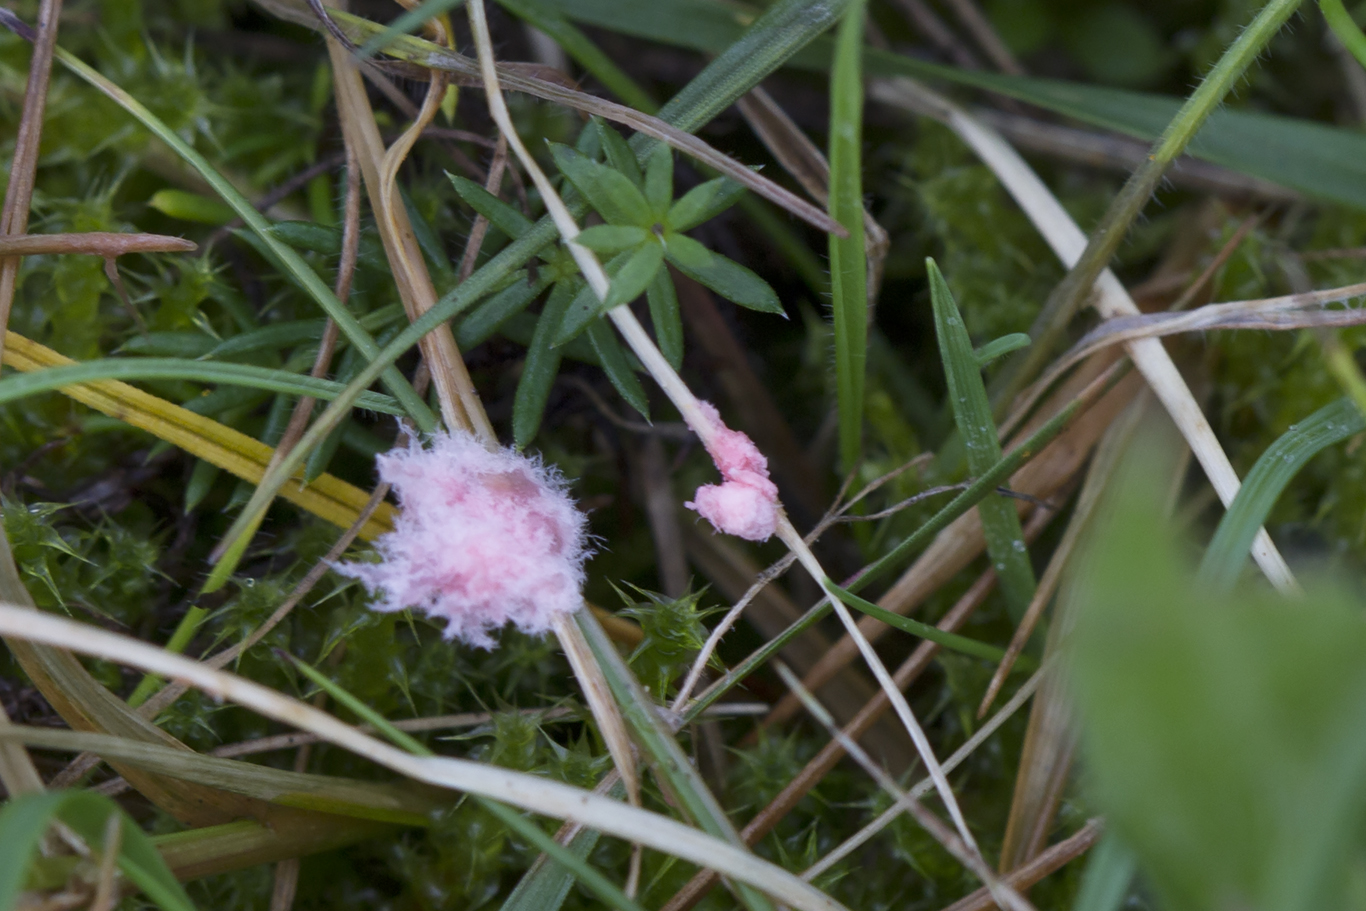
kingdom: Fungi
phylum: Basidiomycota
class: Agaricomycetes
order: Corticiales
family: Corticiaceae
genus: Laetisaria
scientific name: Laetisaria fuciformis
